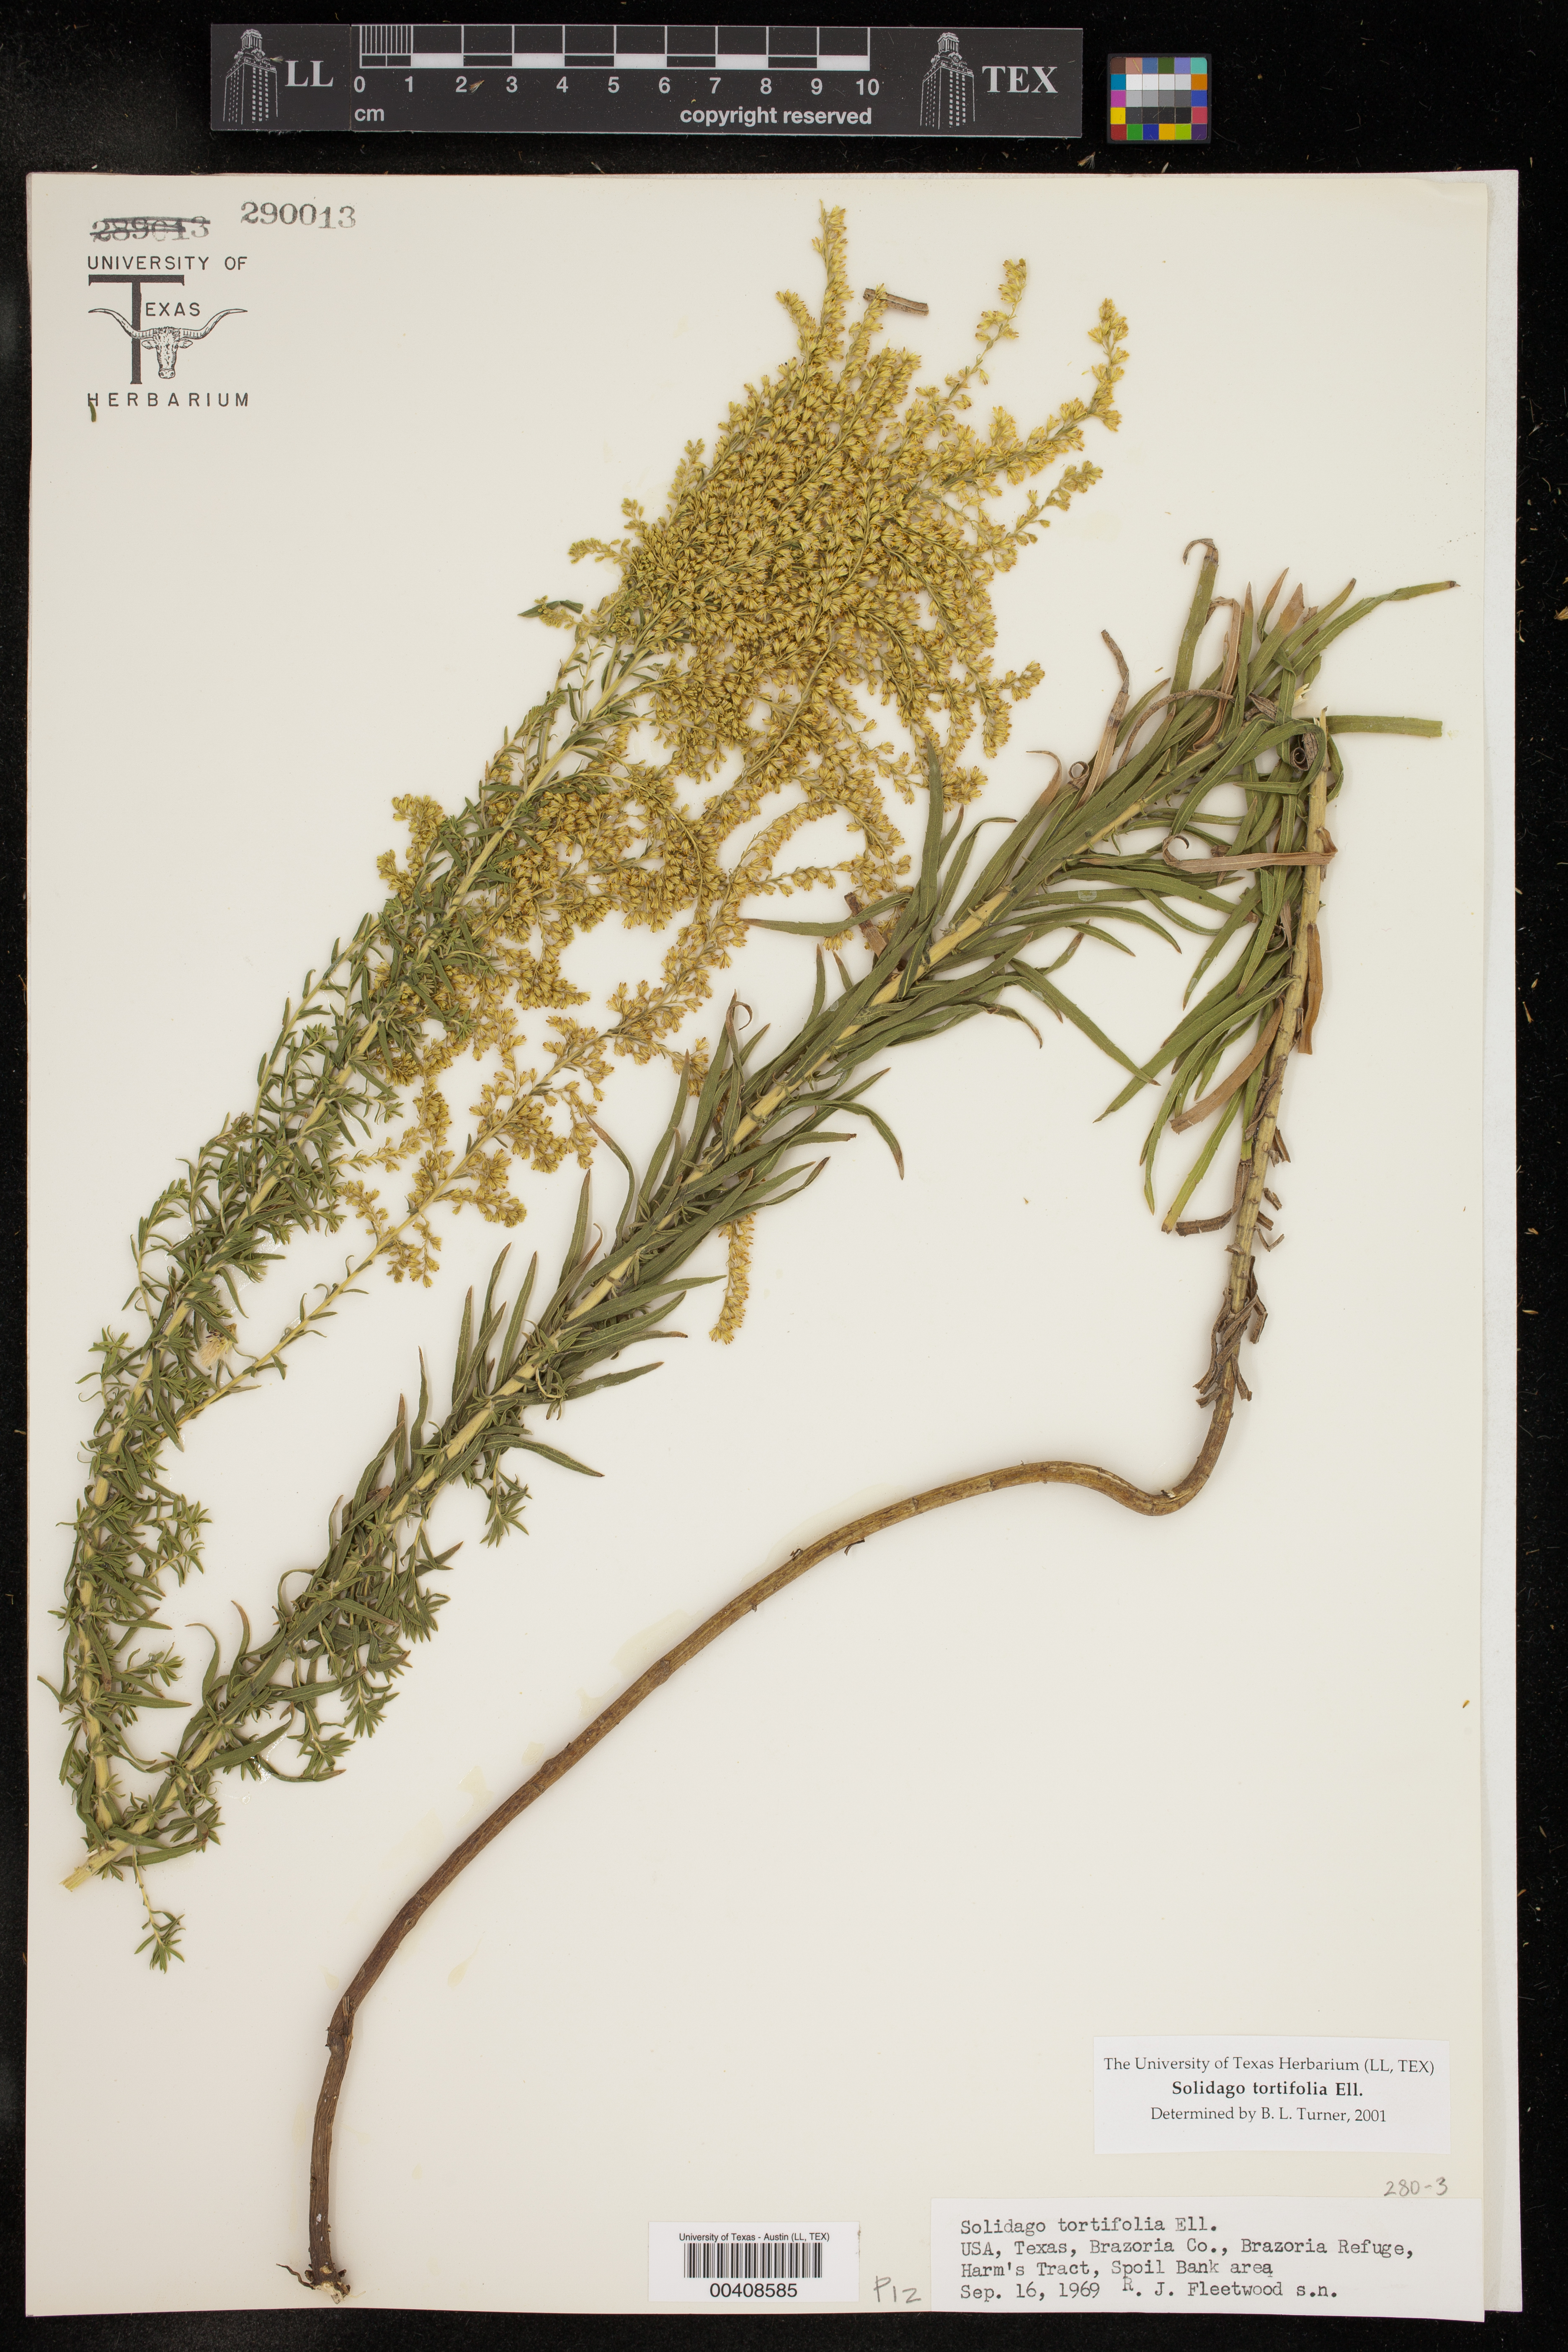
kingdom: Plantae
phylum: Tracheophyta
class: Magnoliopsida
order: Asterales
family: Asteraceae
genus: Solidago
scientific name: Solidago tortifolia
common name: Twisted-leaf goldenrod
